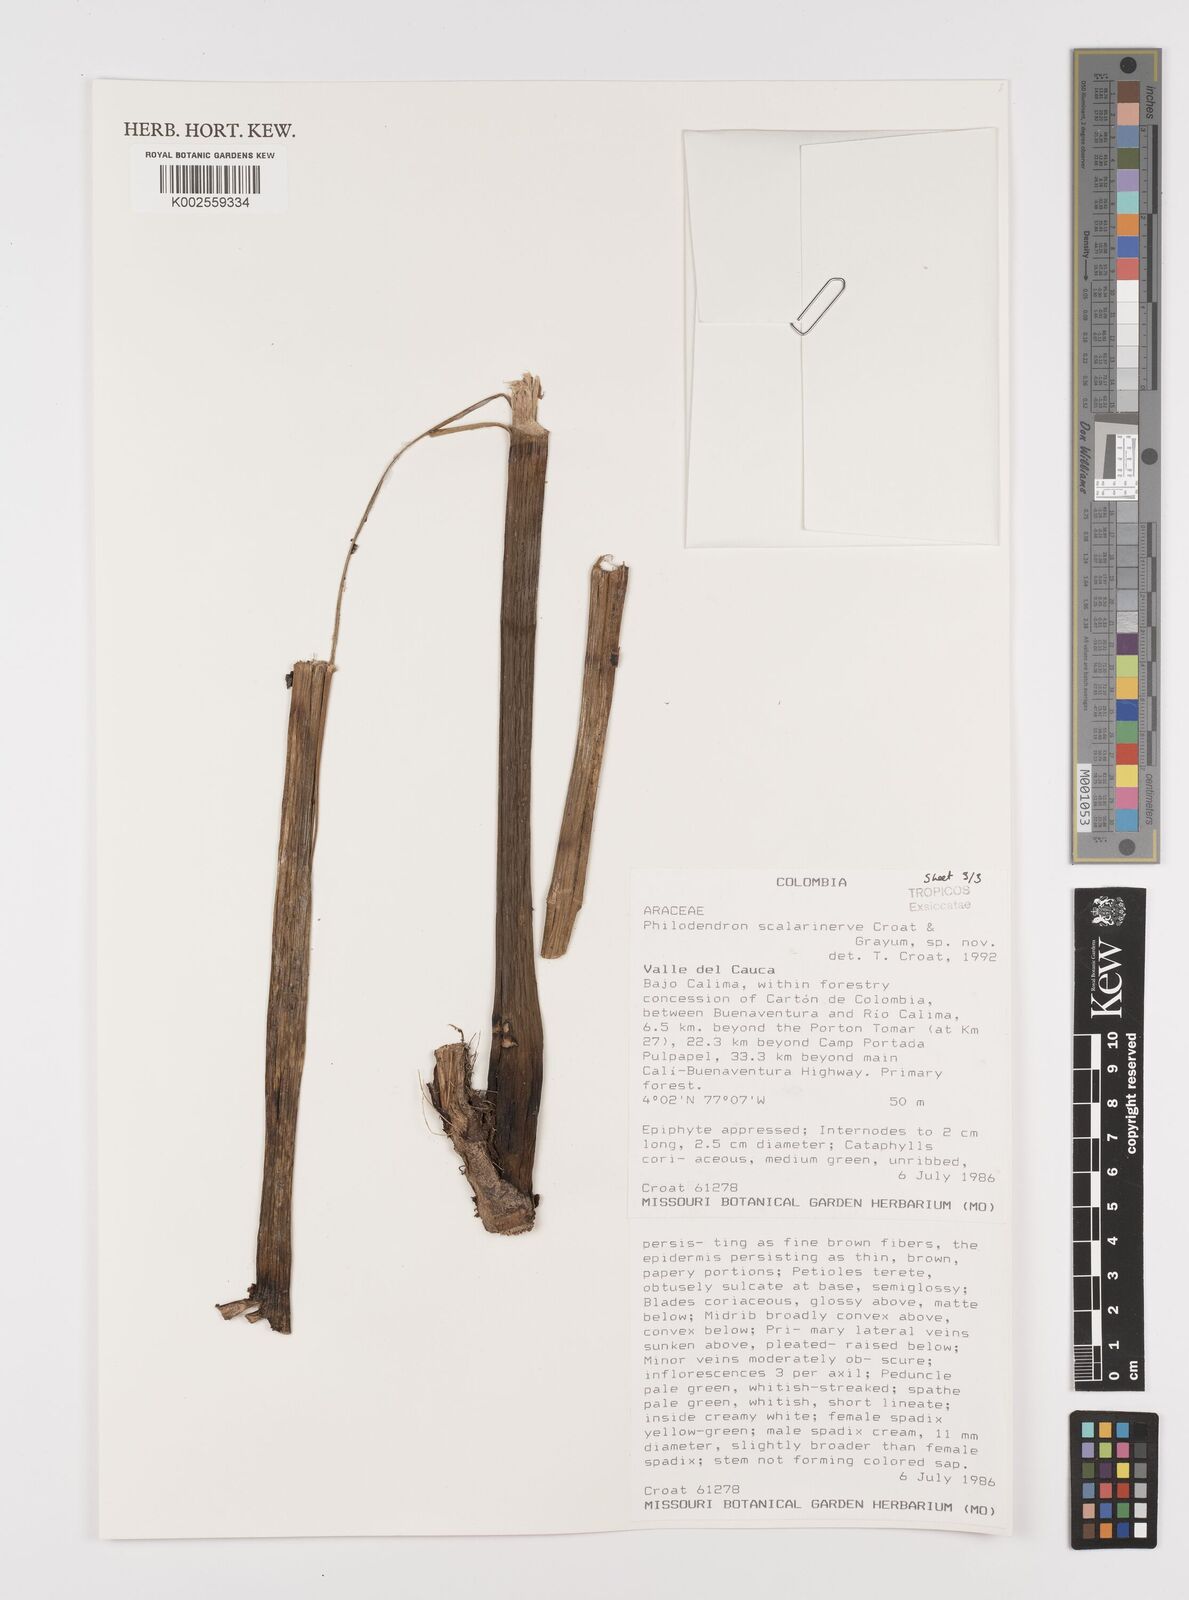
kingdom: Plantae
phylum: Tracheophyta
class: Liliopsida
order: Alismatales
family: Araceae
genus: Philodendron
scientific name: Philodendron scalarinerve
